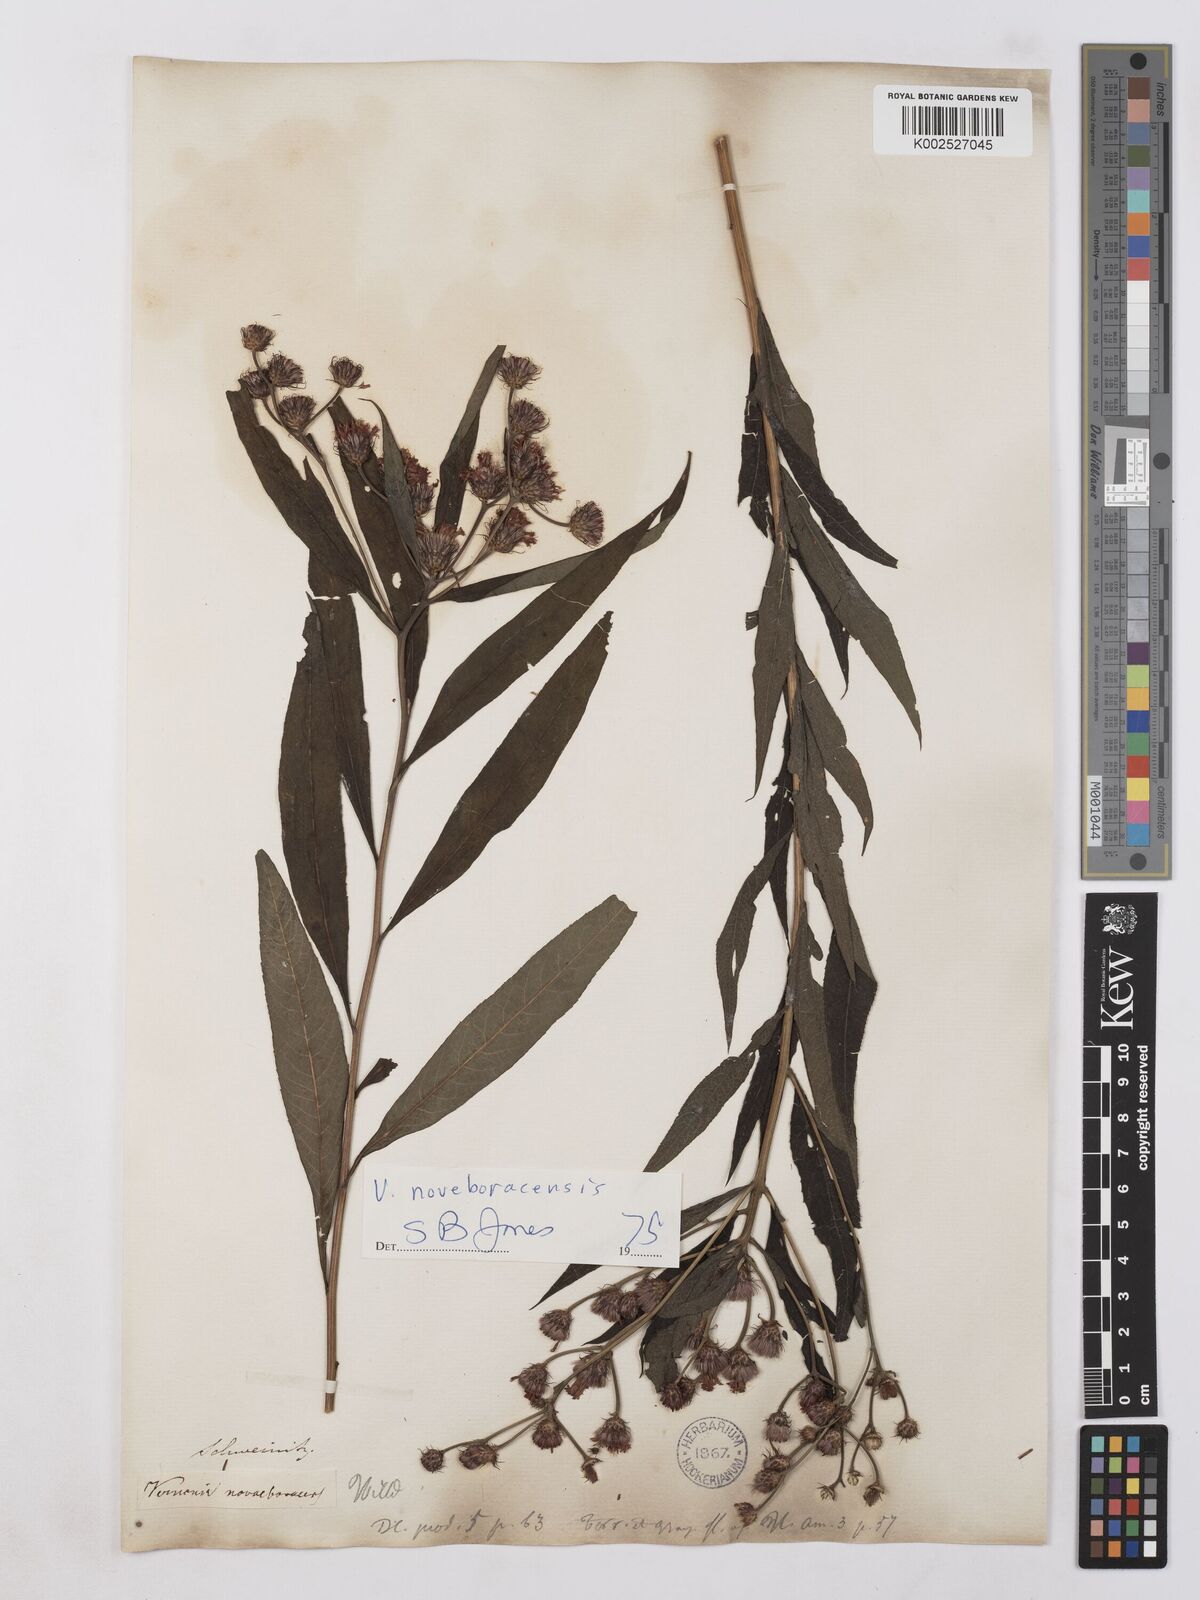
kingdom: Plantae
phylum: Tracheophyta
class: Magnoliopsida
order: Asterales
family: Asteraceae
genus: Vernonia
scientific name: Vernonia
